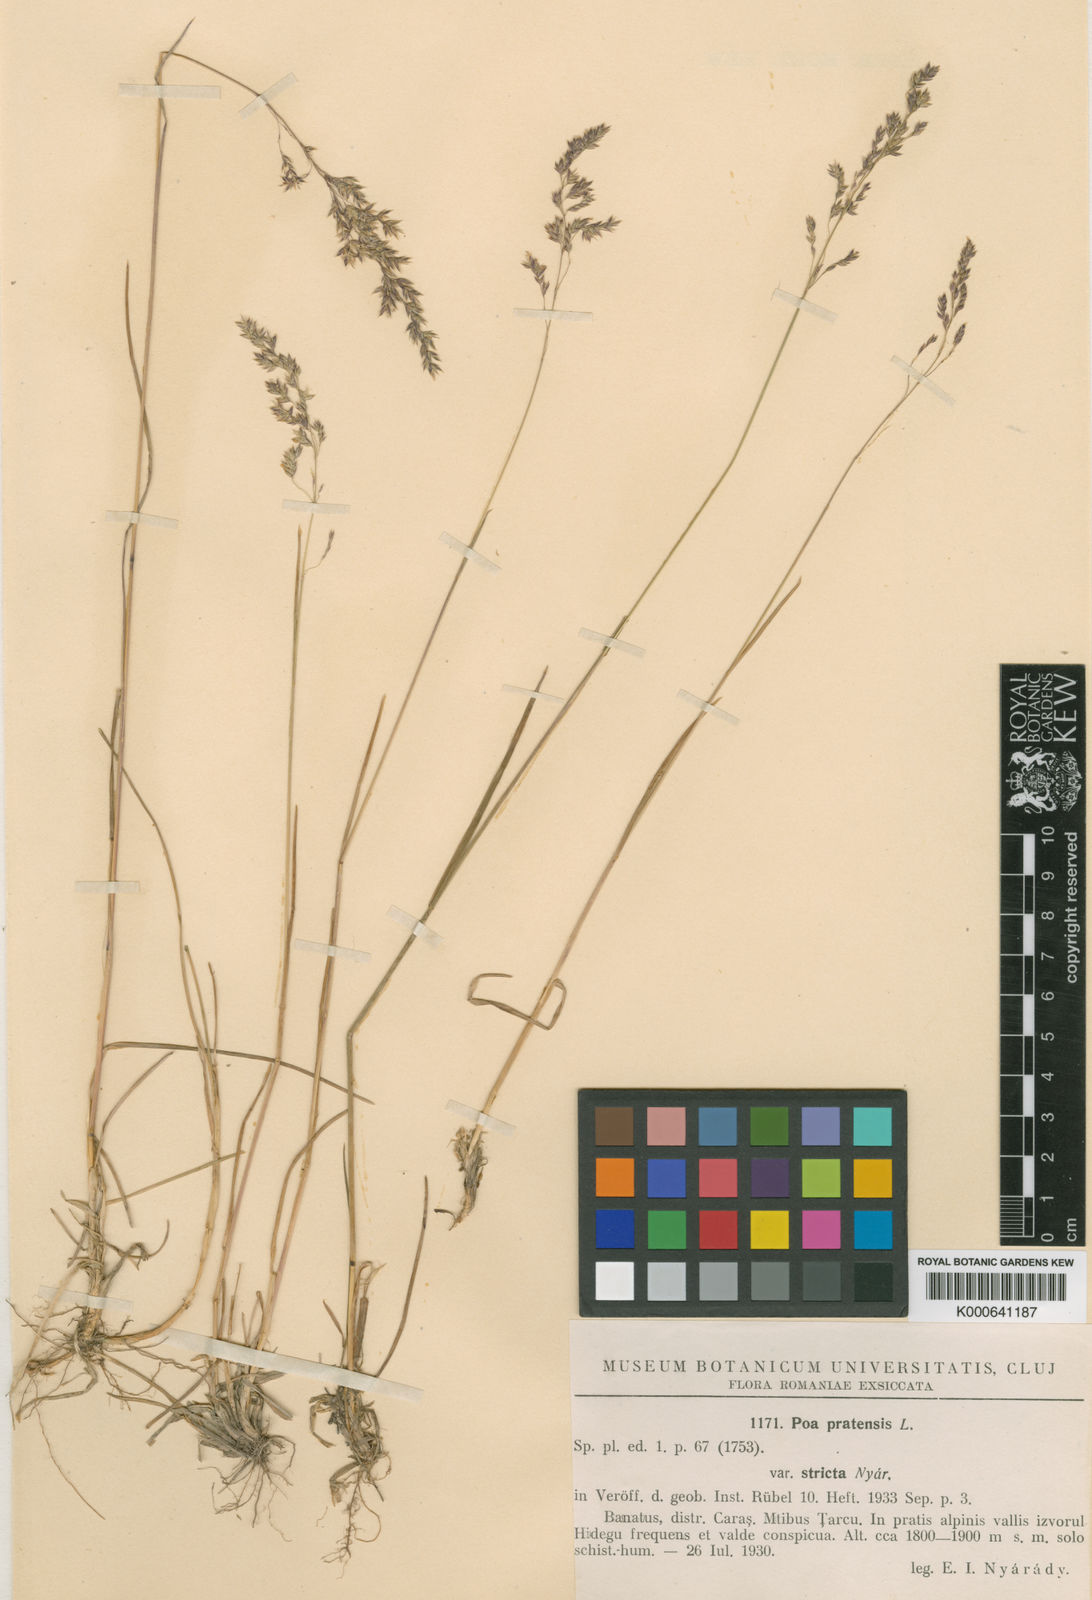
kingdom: Plantae
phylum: Tracheophyta
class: Liliopsida
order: Poales
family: Poaceae
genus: Poa
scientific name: Poa pratensis
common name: Kentucky bluegrass
